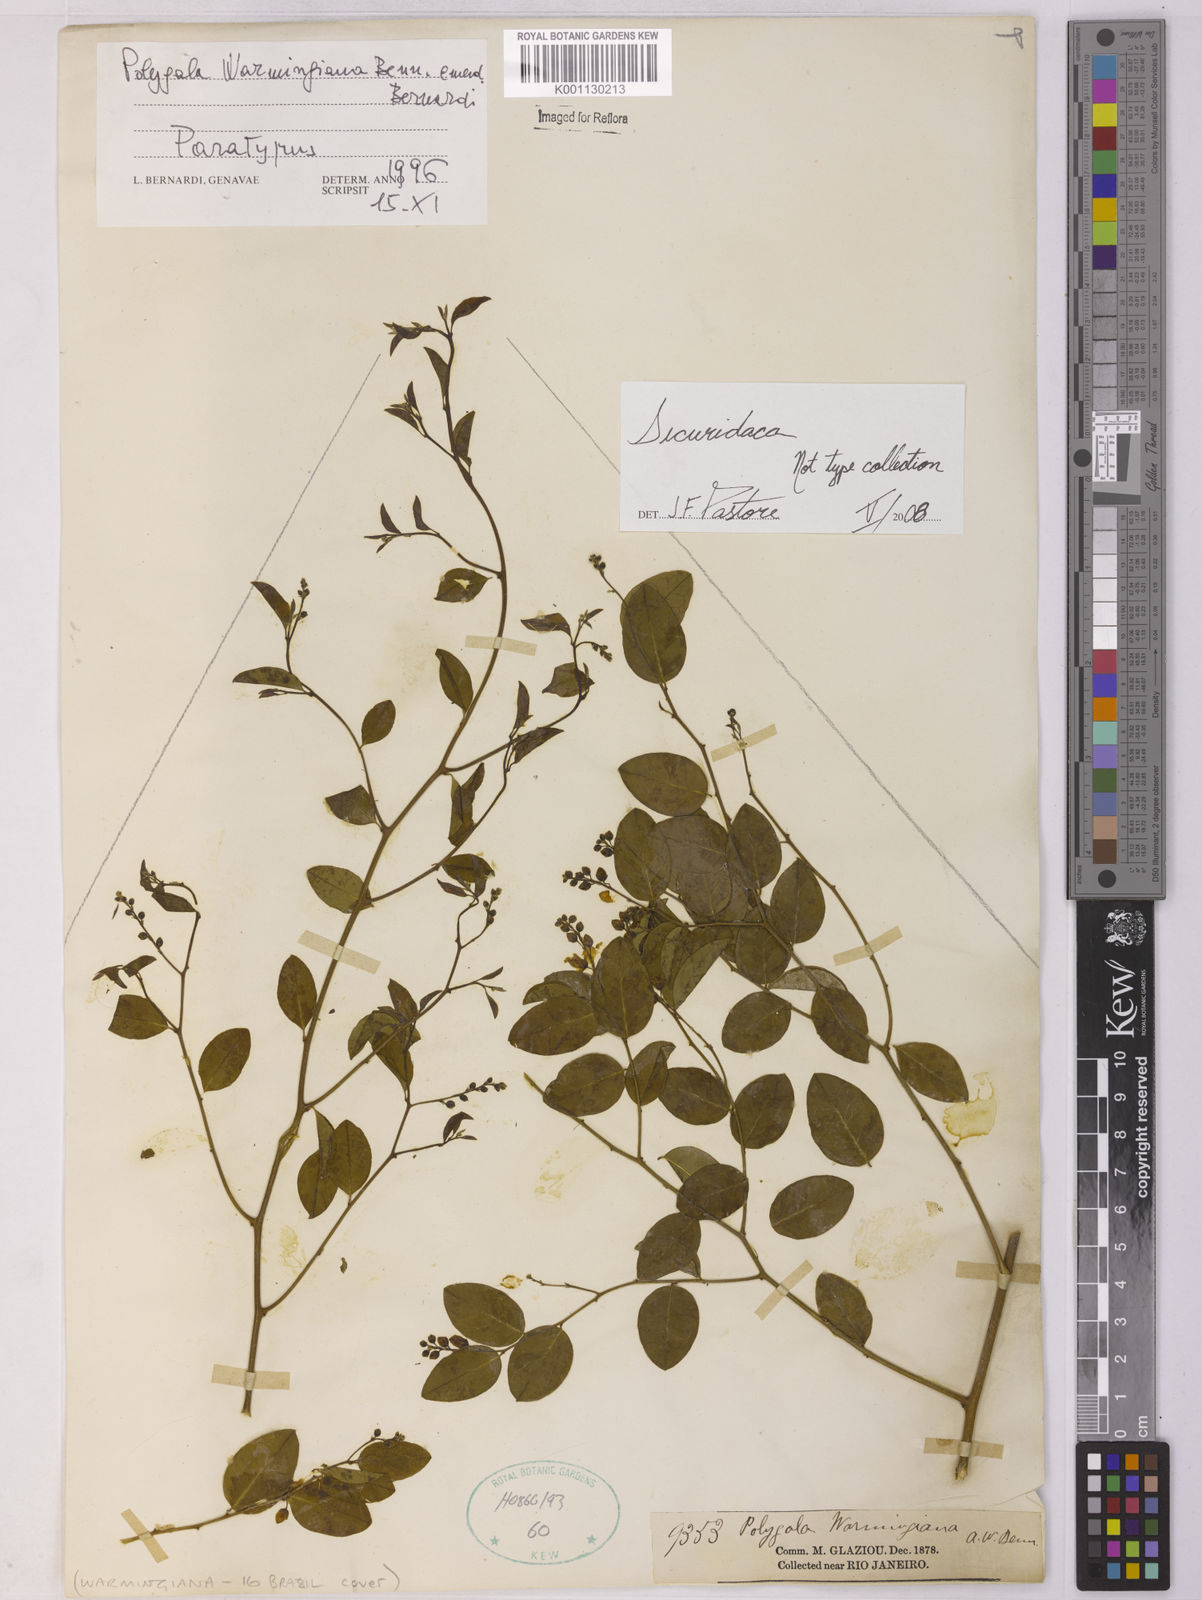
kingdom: Plantae
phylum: Tracheophyta
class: Magnoliopsida
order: Fabales
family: Polygalaceae
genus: Securidaca
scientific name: Securidaca
